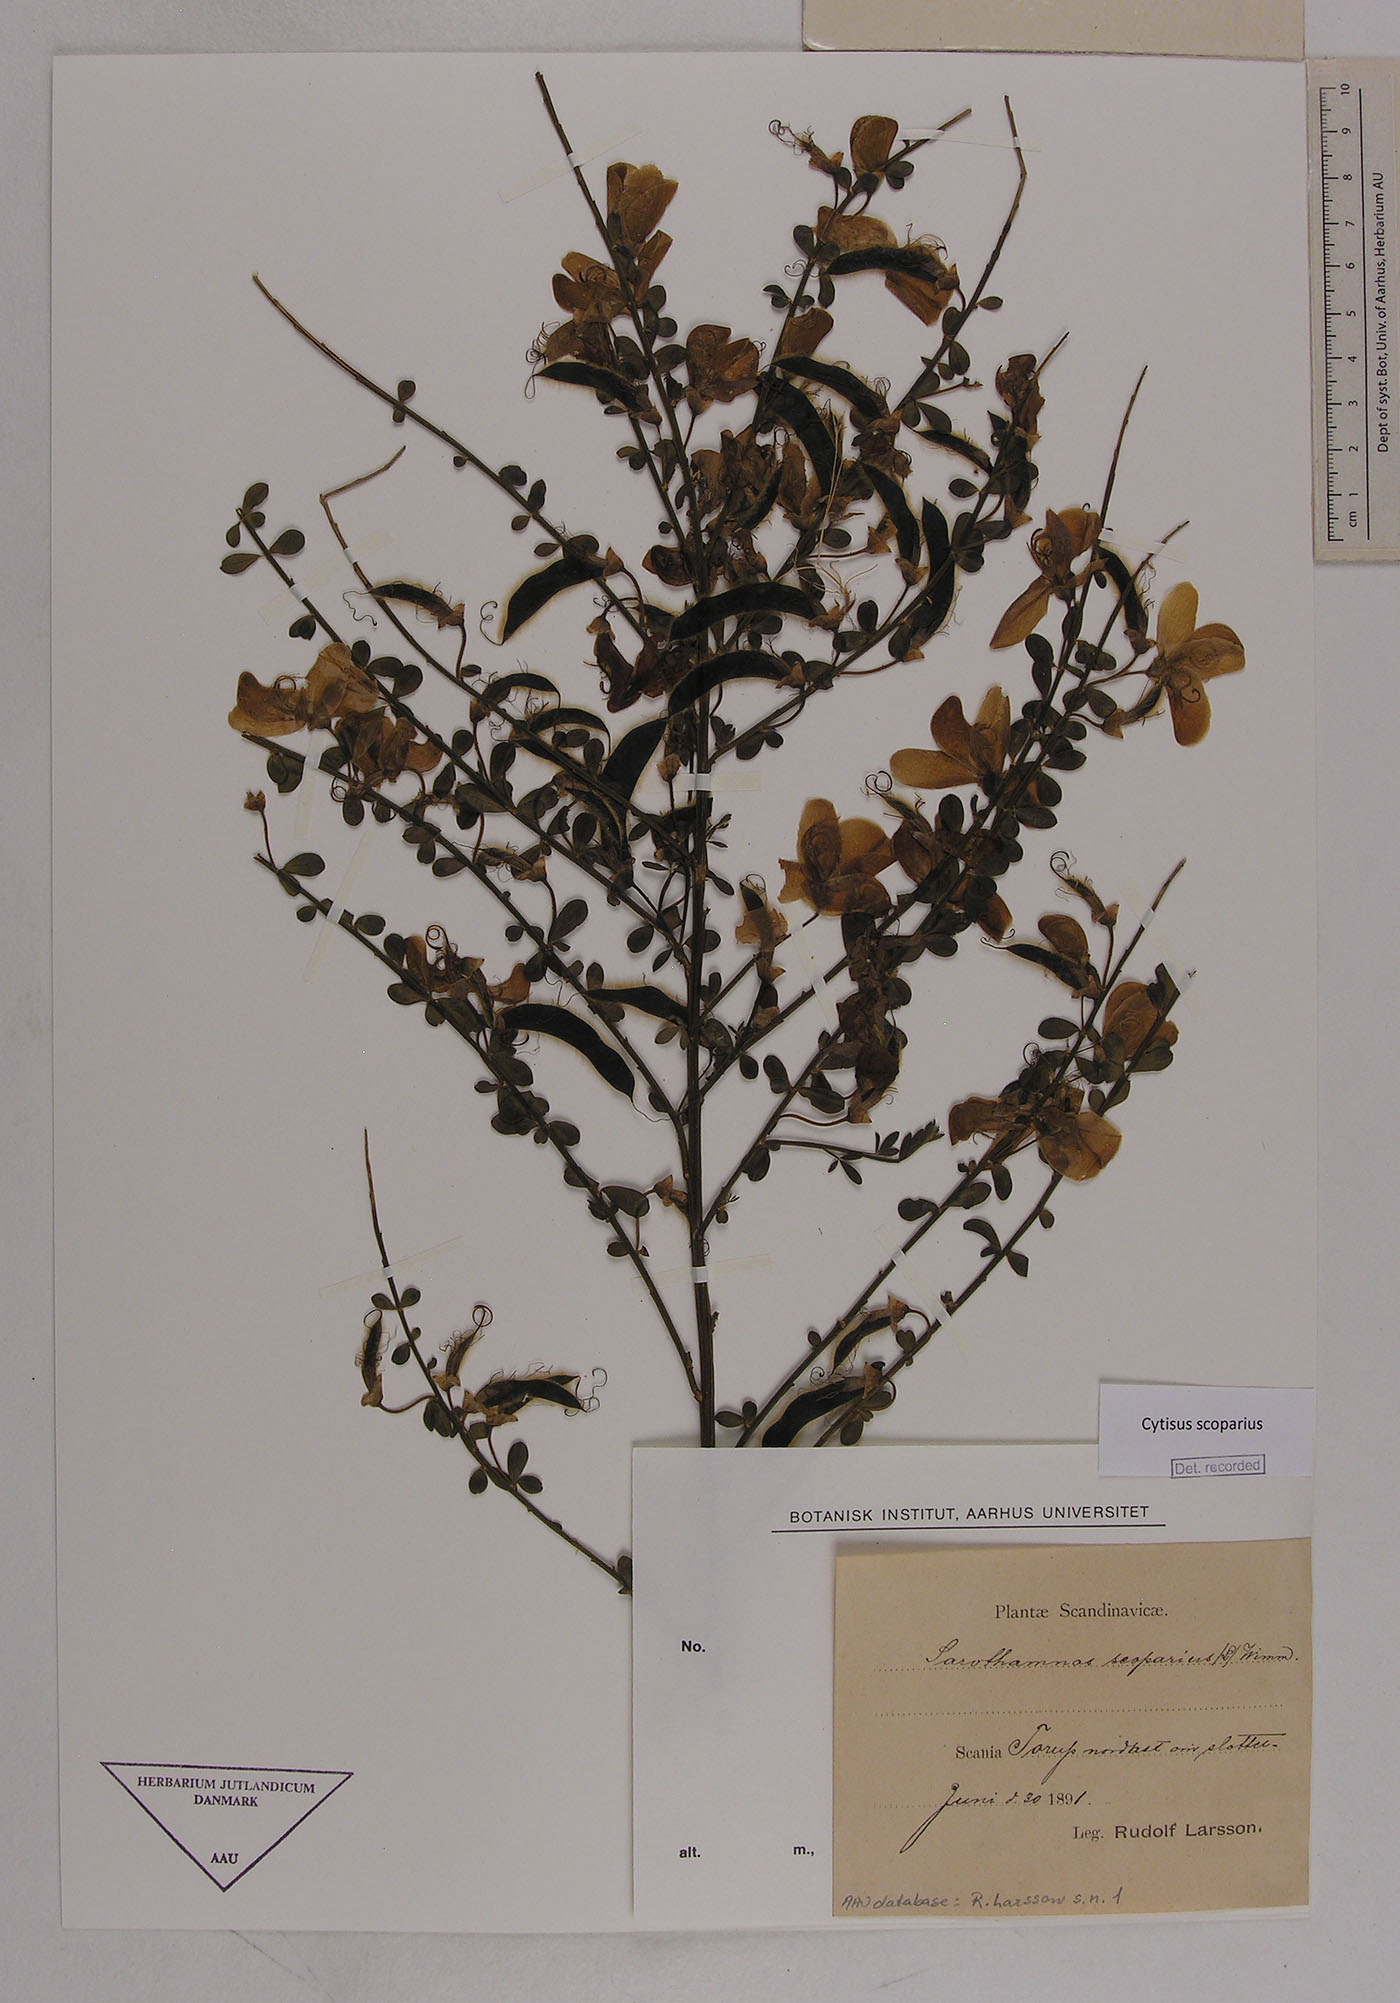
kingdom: Plantae
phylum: Tracheophyta
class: Magnoliopsida
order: Fabales
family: Fabaceae
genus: Cytisus
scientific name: Cytisus scoparius
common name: Scotch broom
